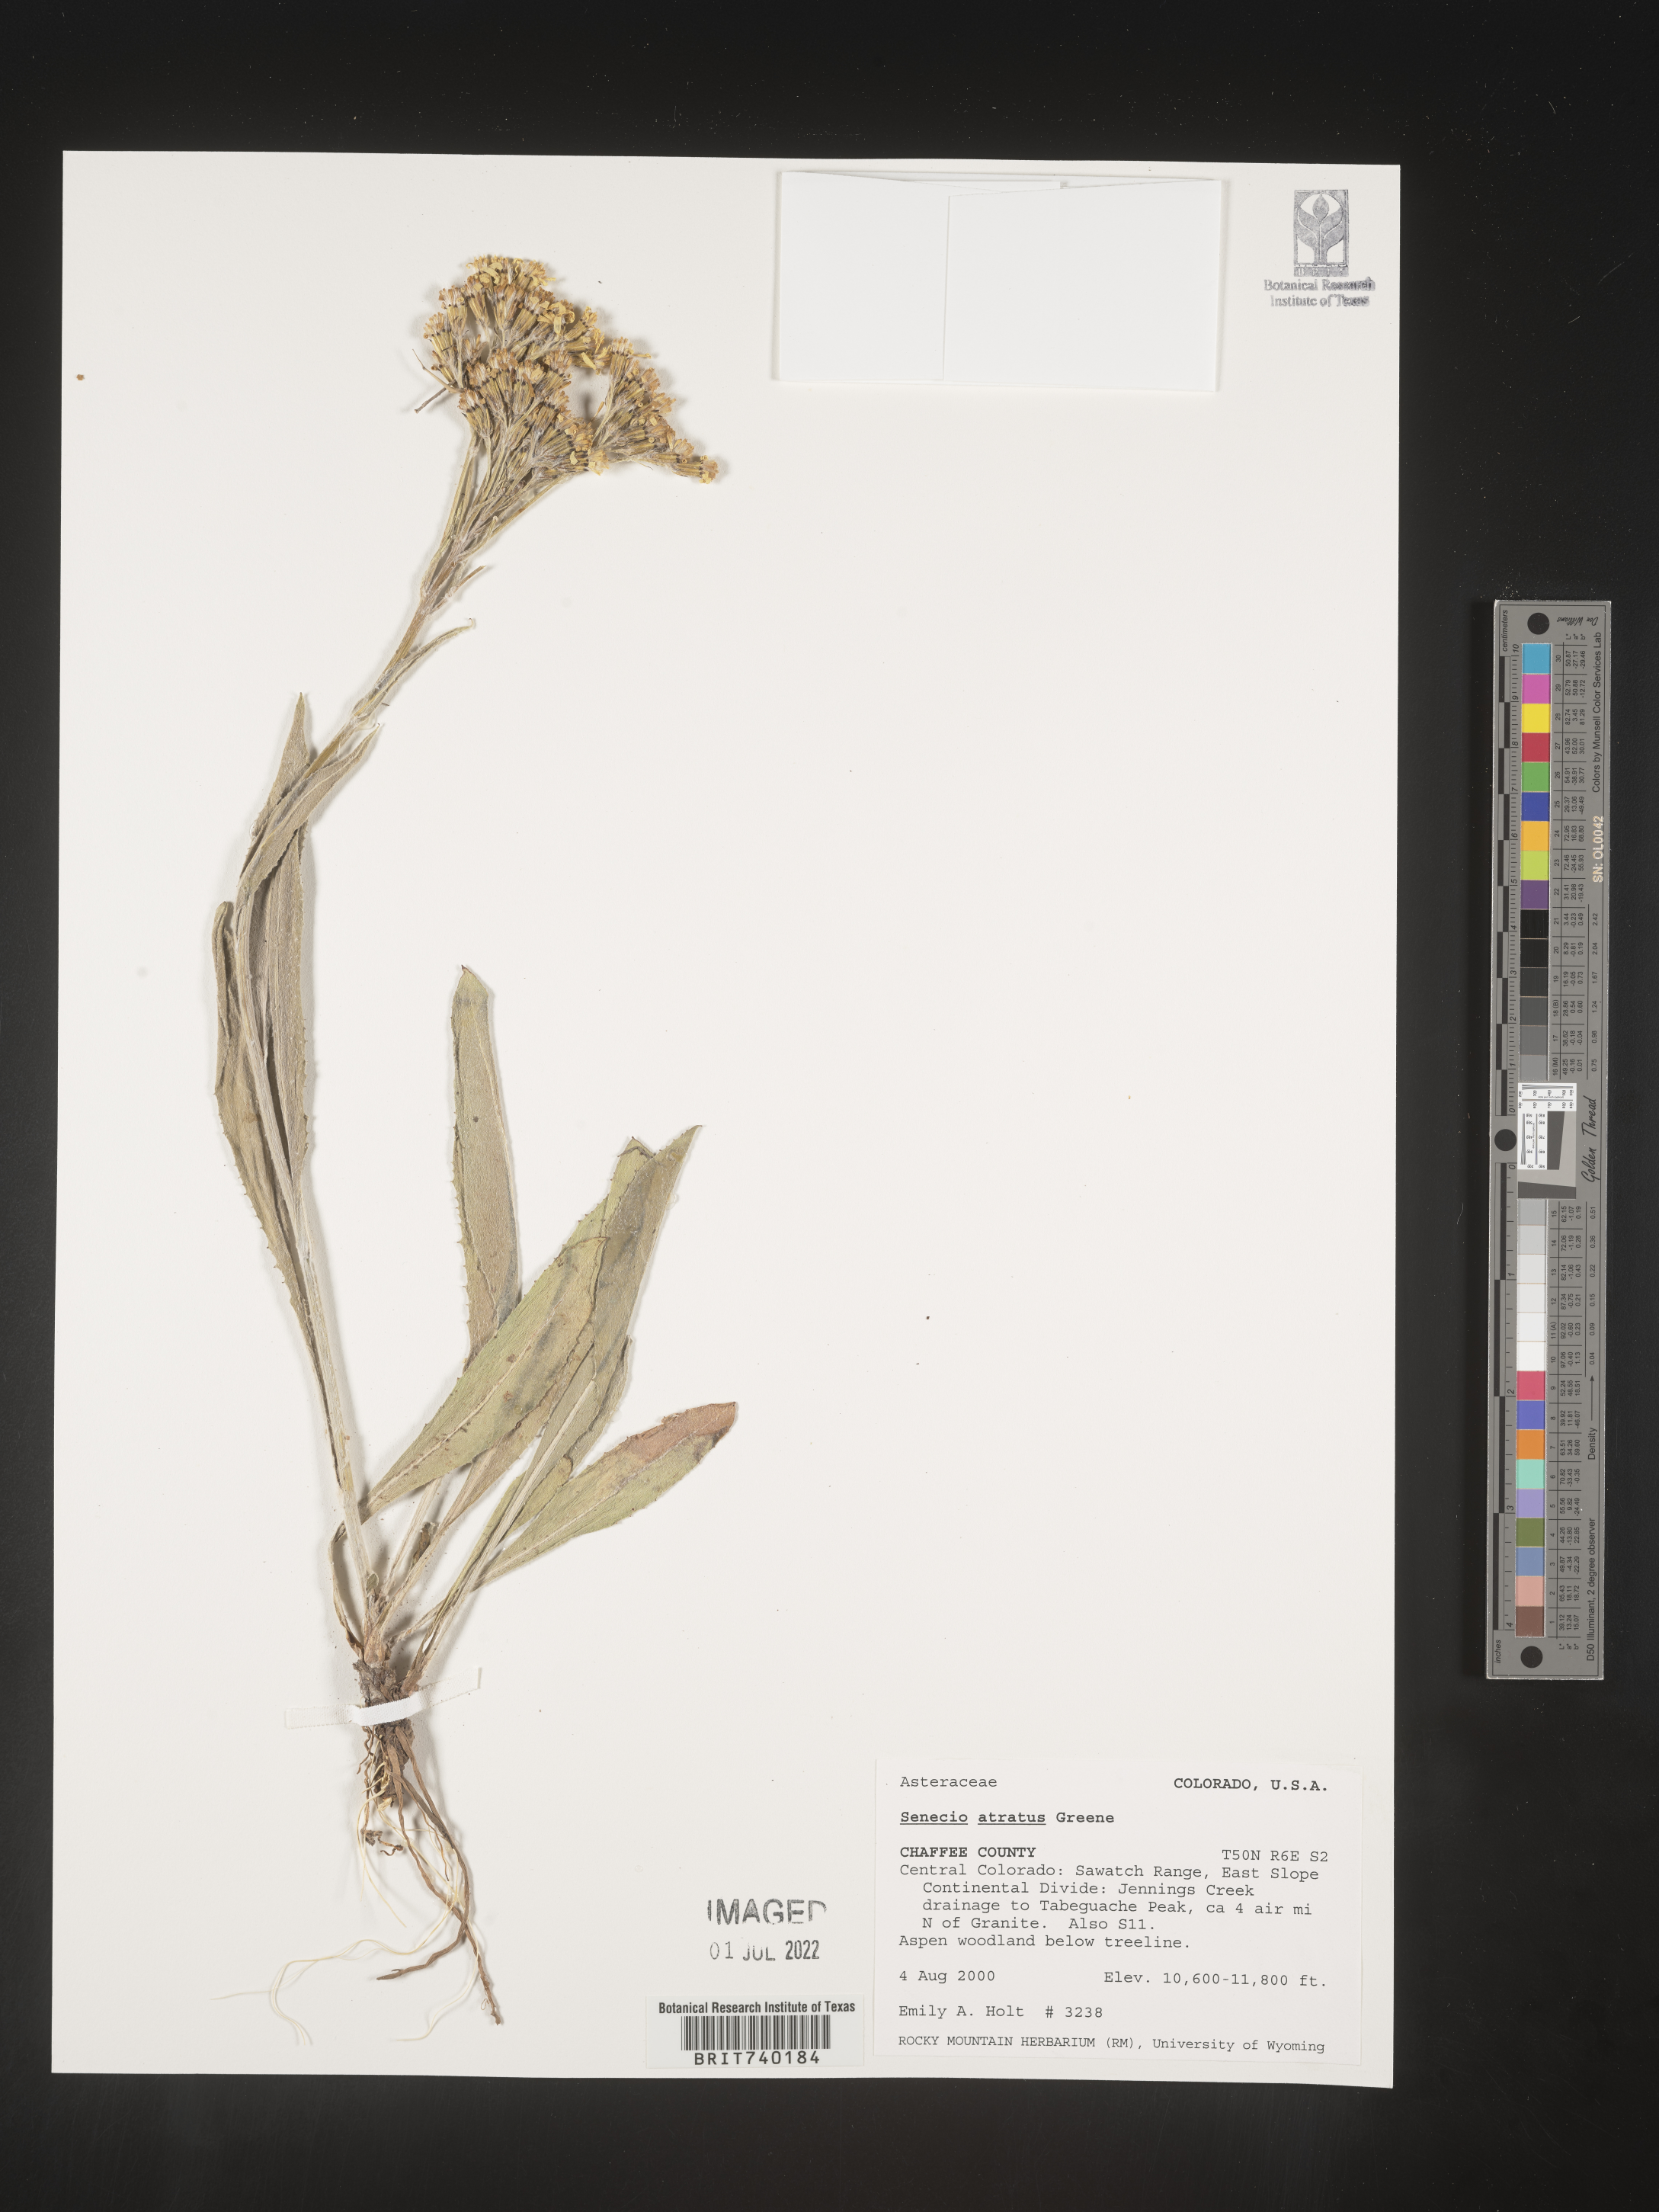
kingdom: Plantae
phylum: Tracheophyta
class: Magnoliopsida
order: Asterales
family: Asteraceae
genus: Senecio
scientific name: Senecio atratus
